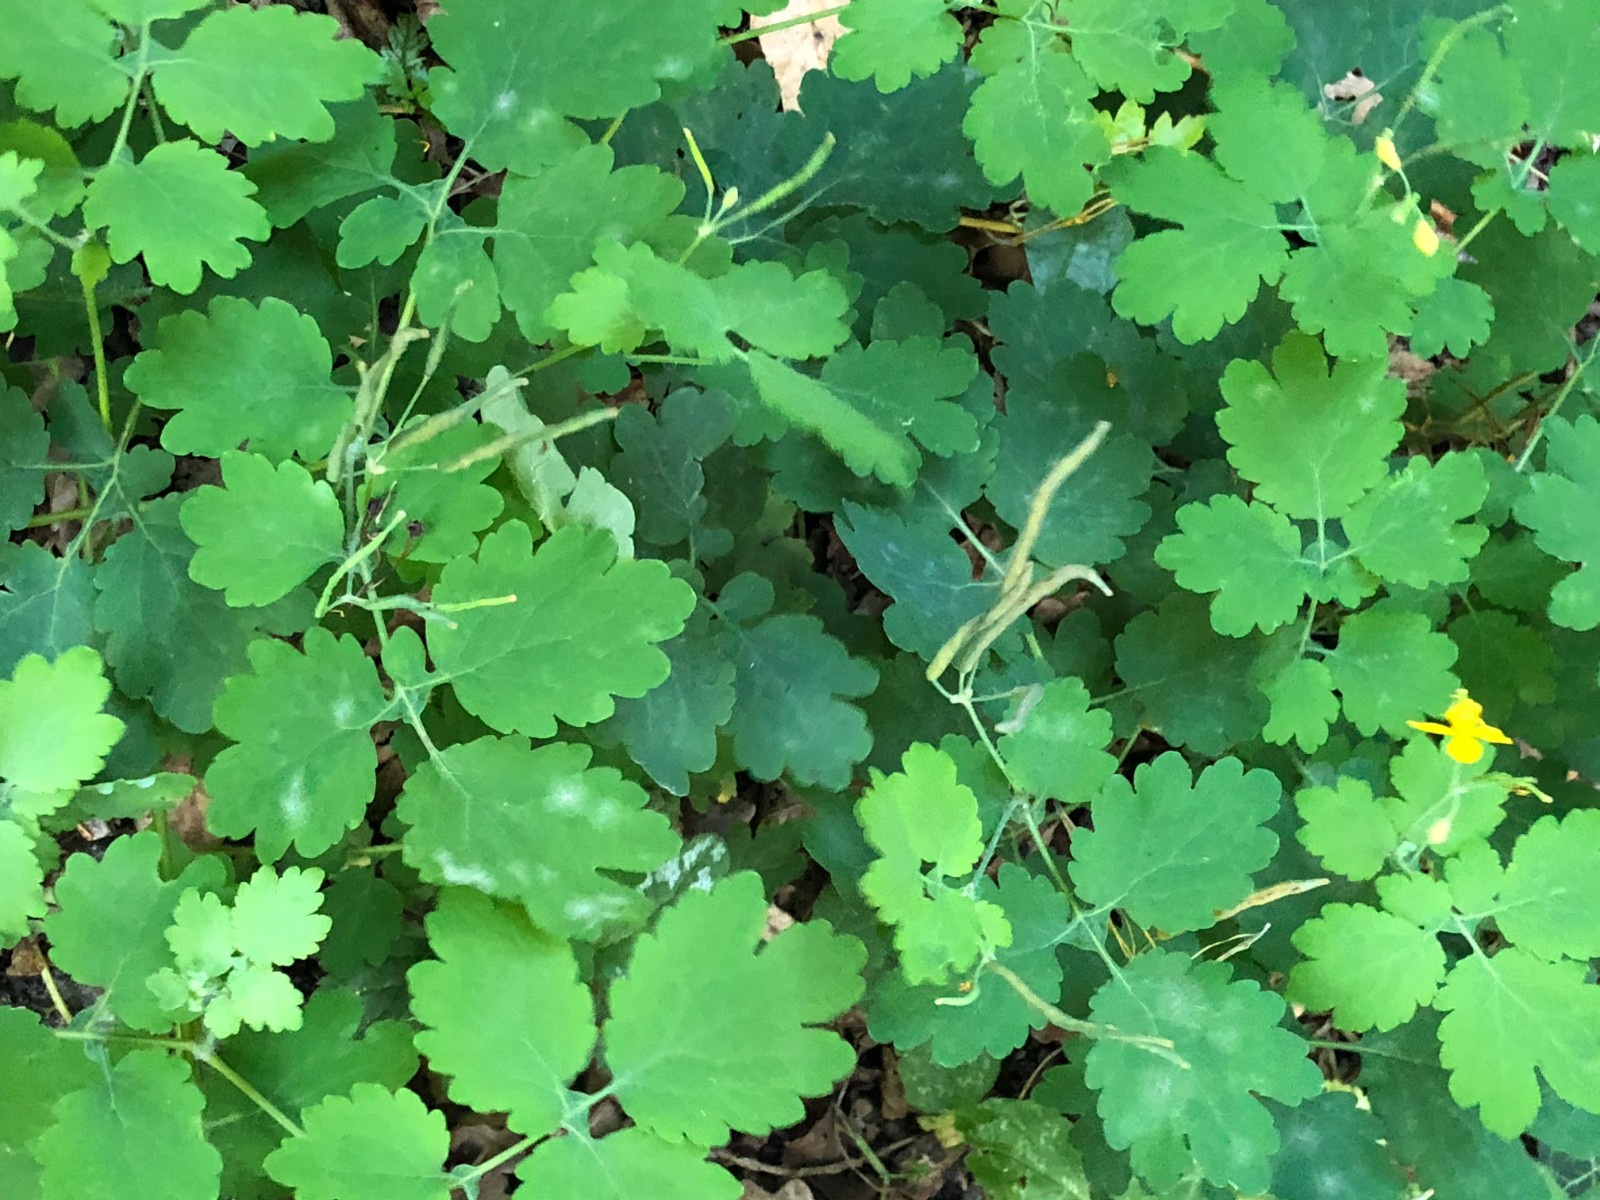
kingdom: Fungi
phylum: Ascomycota
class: Leotiomycetes
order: Helotiales
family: Erysiphaceae
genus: Erysiphe
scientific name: Erysiphe macleayae
